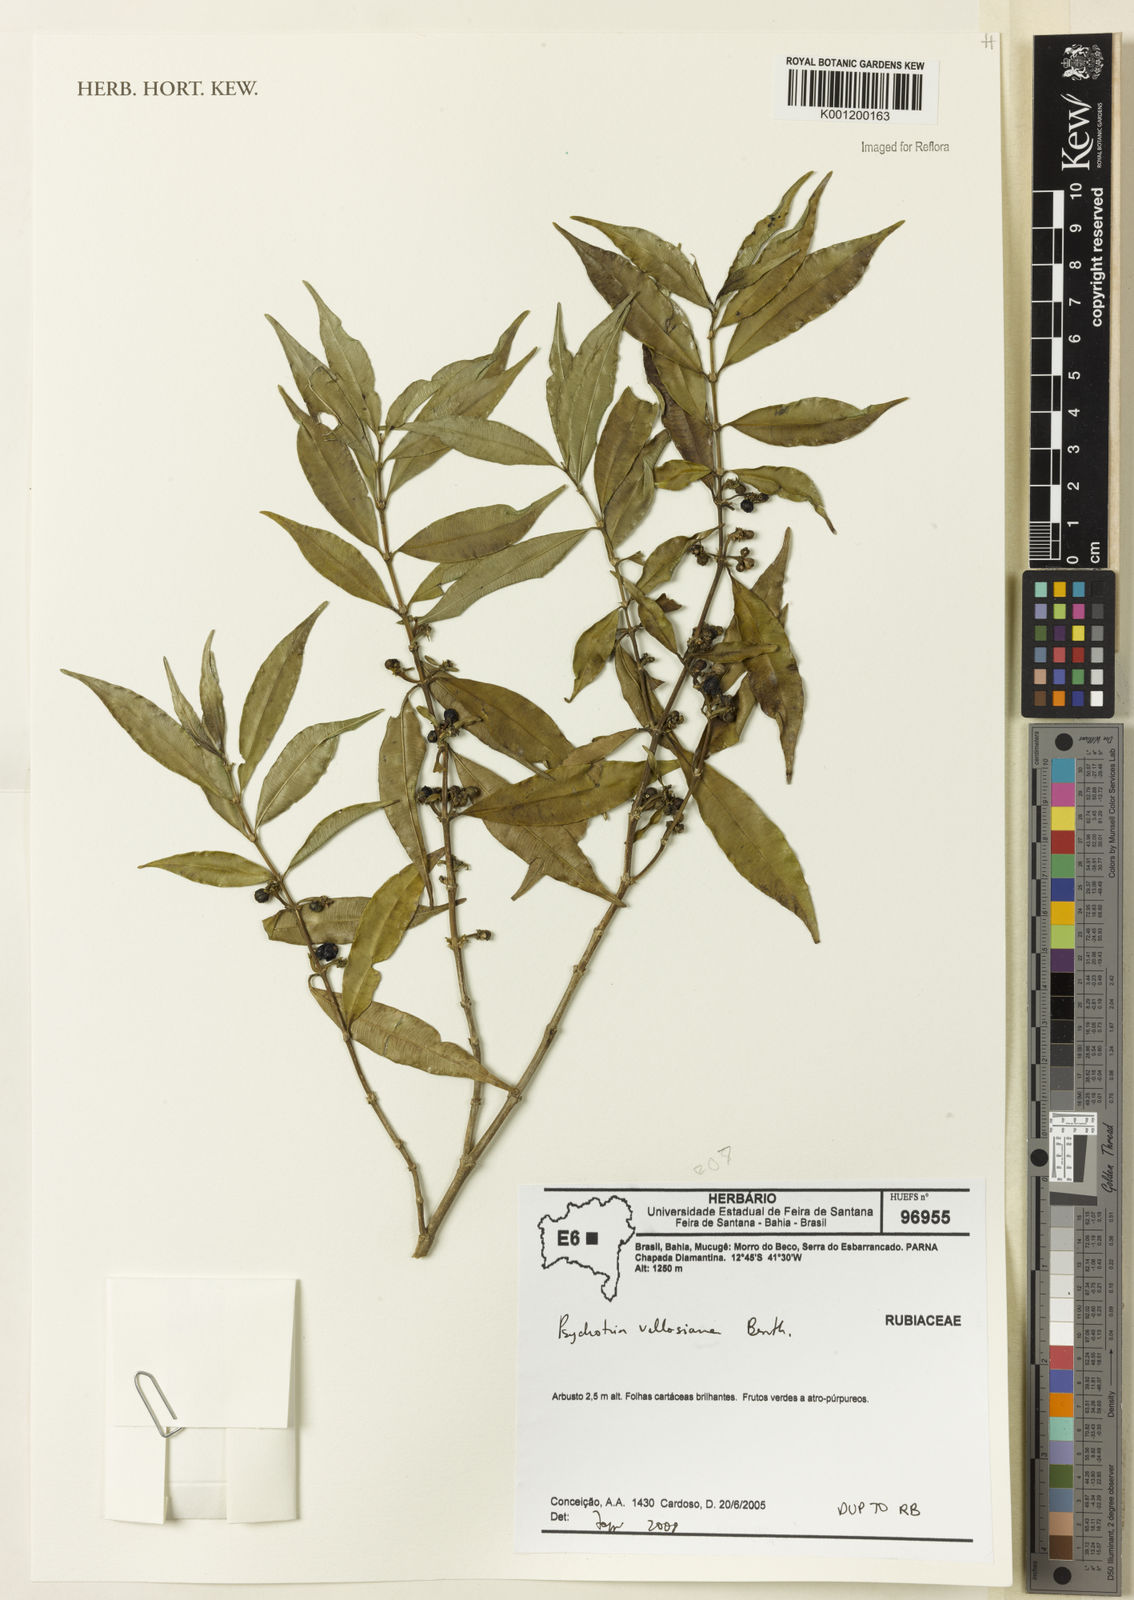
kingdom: Plantae
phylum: Tracheophyta
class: Magnoliopsida
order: Gentianales
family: Rubiaceae
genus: Palicourea
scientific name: Palicourea sessilis
